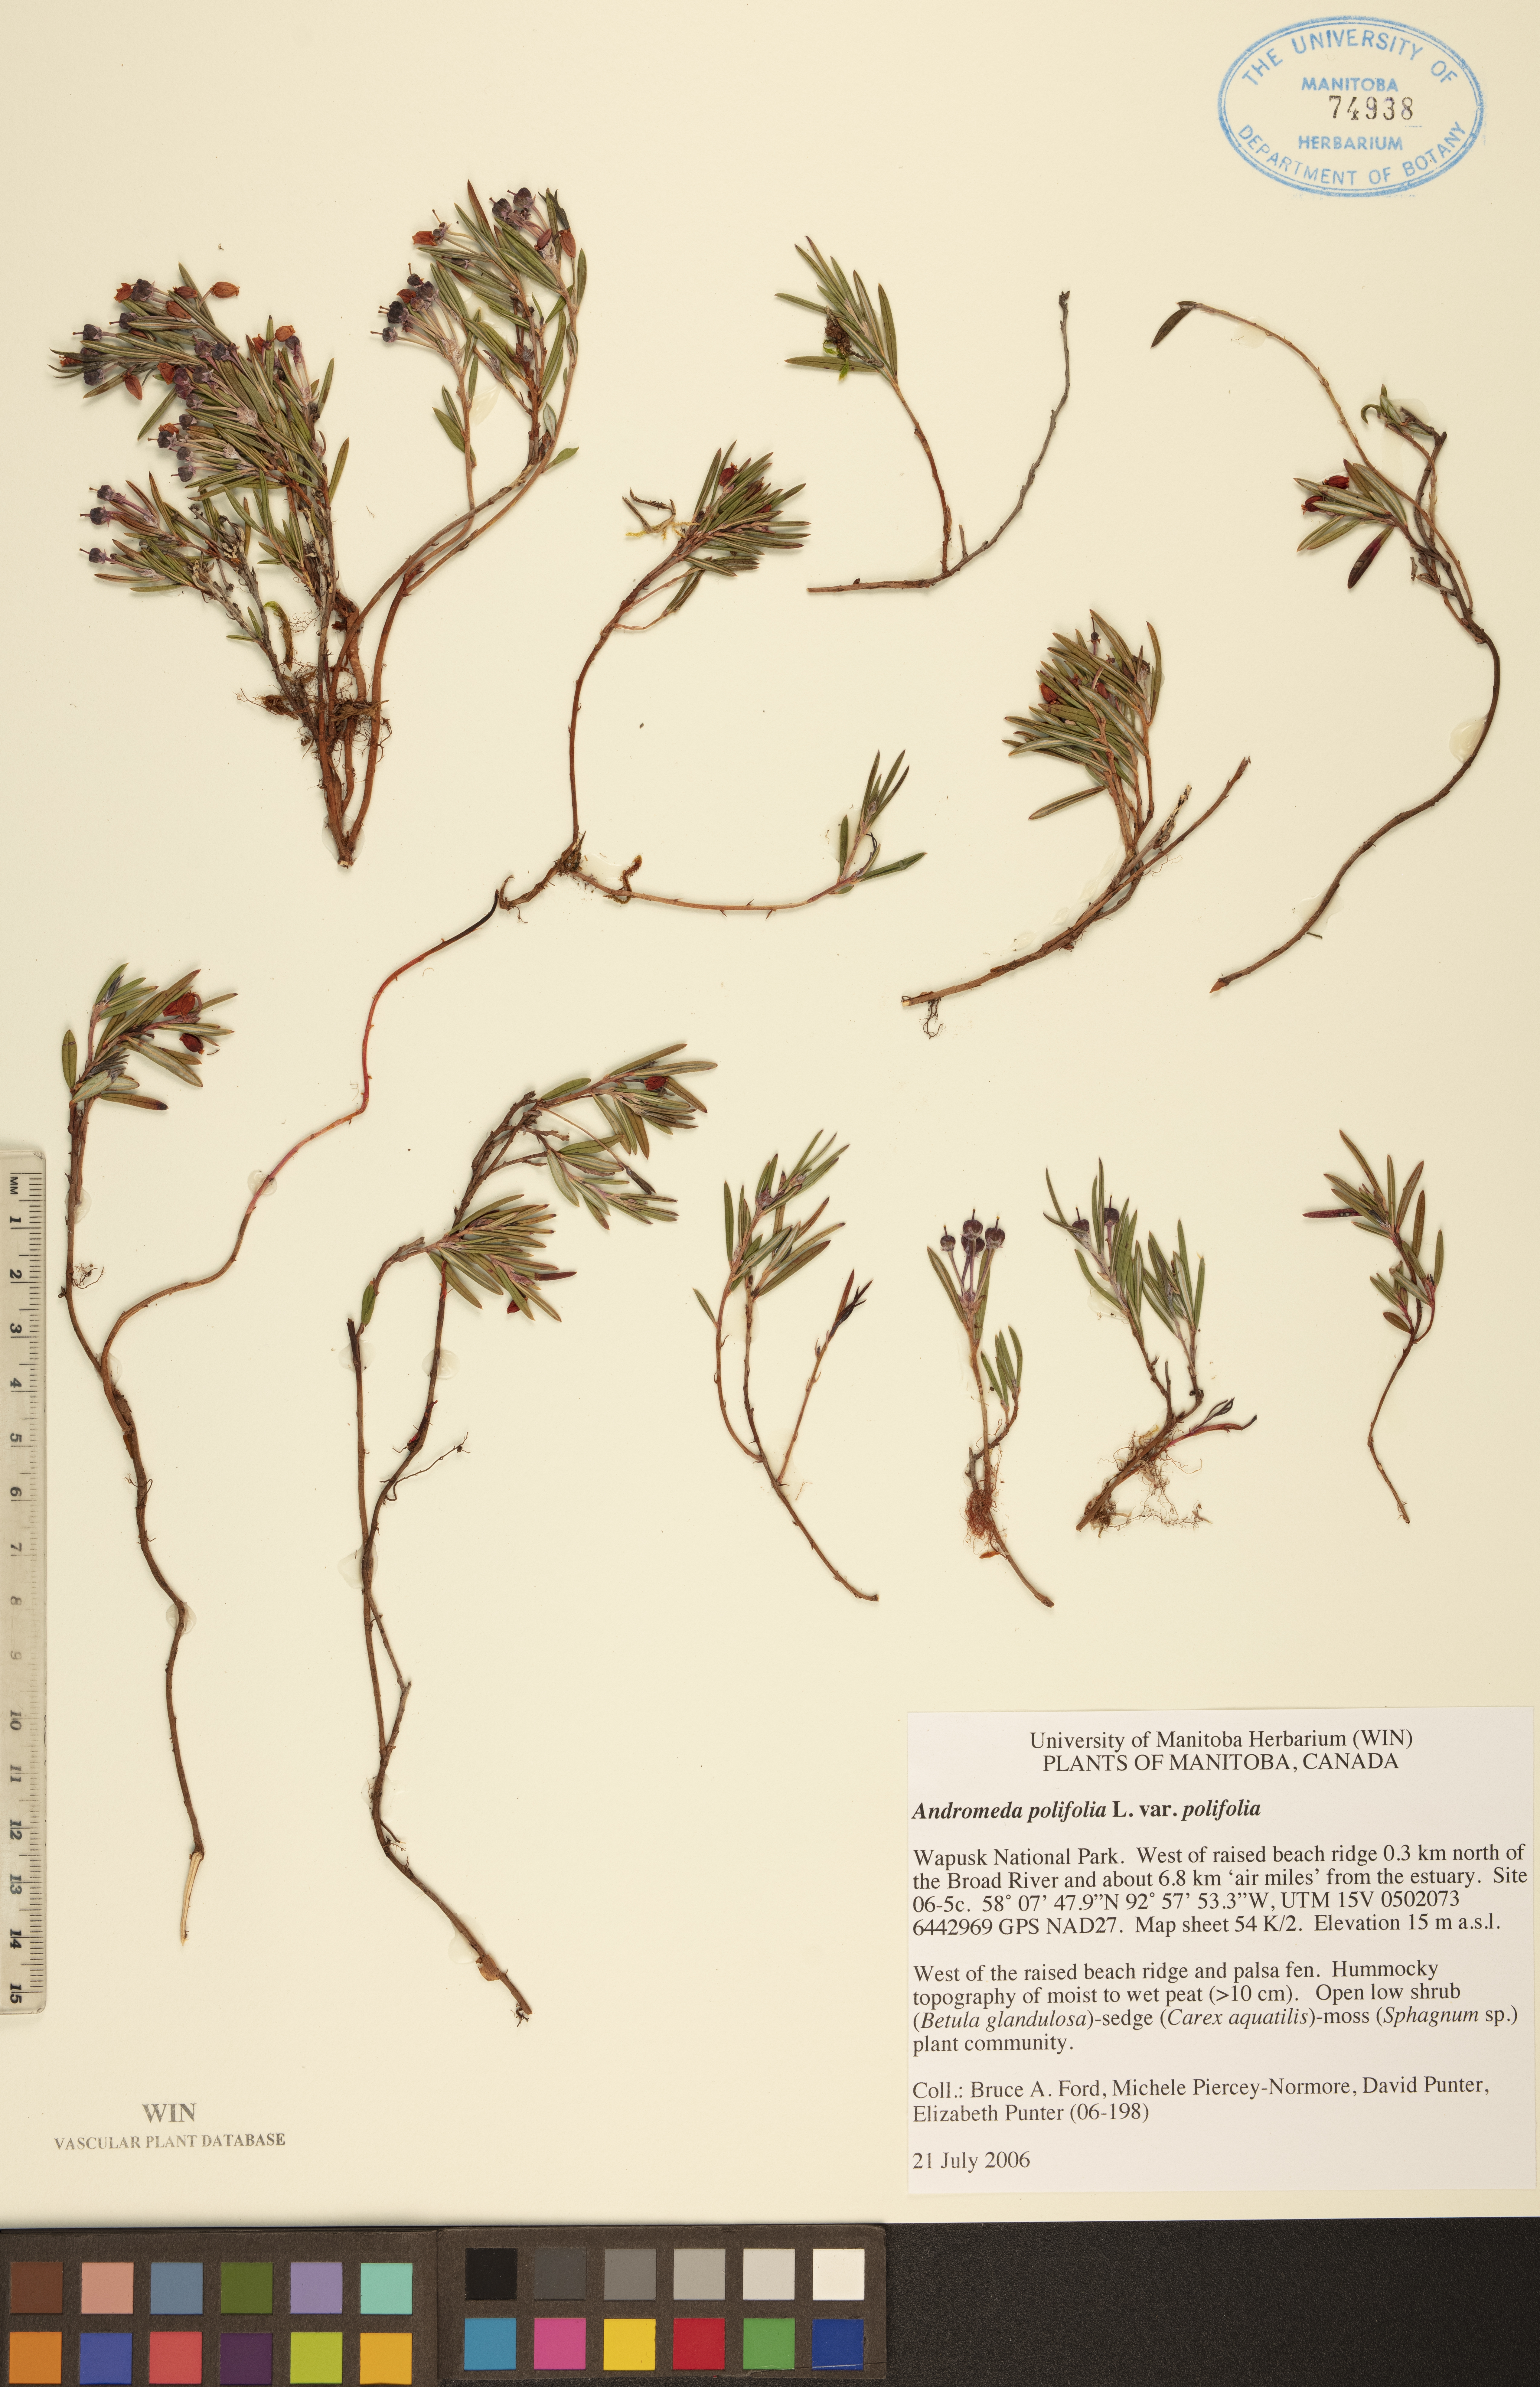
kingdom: Plantae
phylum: Tracheophyta
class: Magnoliopsida
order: Ericales
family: Ericaceae
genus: Andromeda
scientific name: Andromeda polifolia
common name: Bog-rosemary
